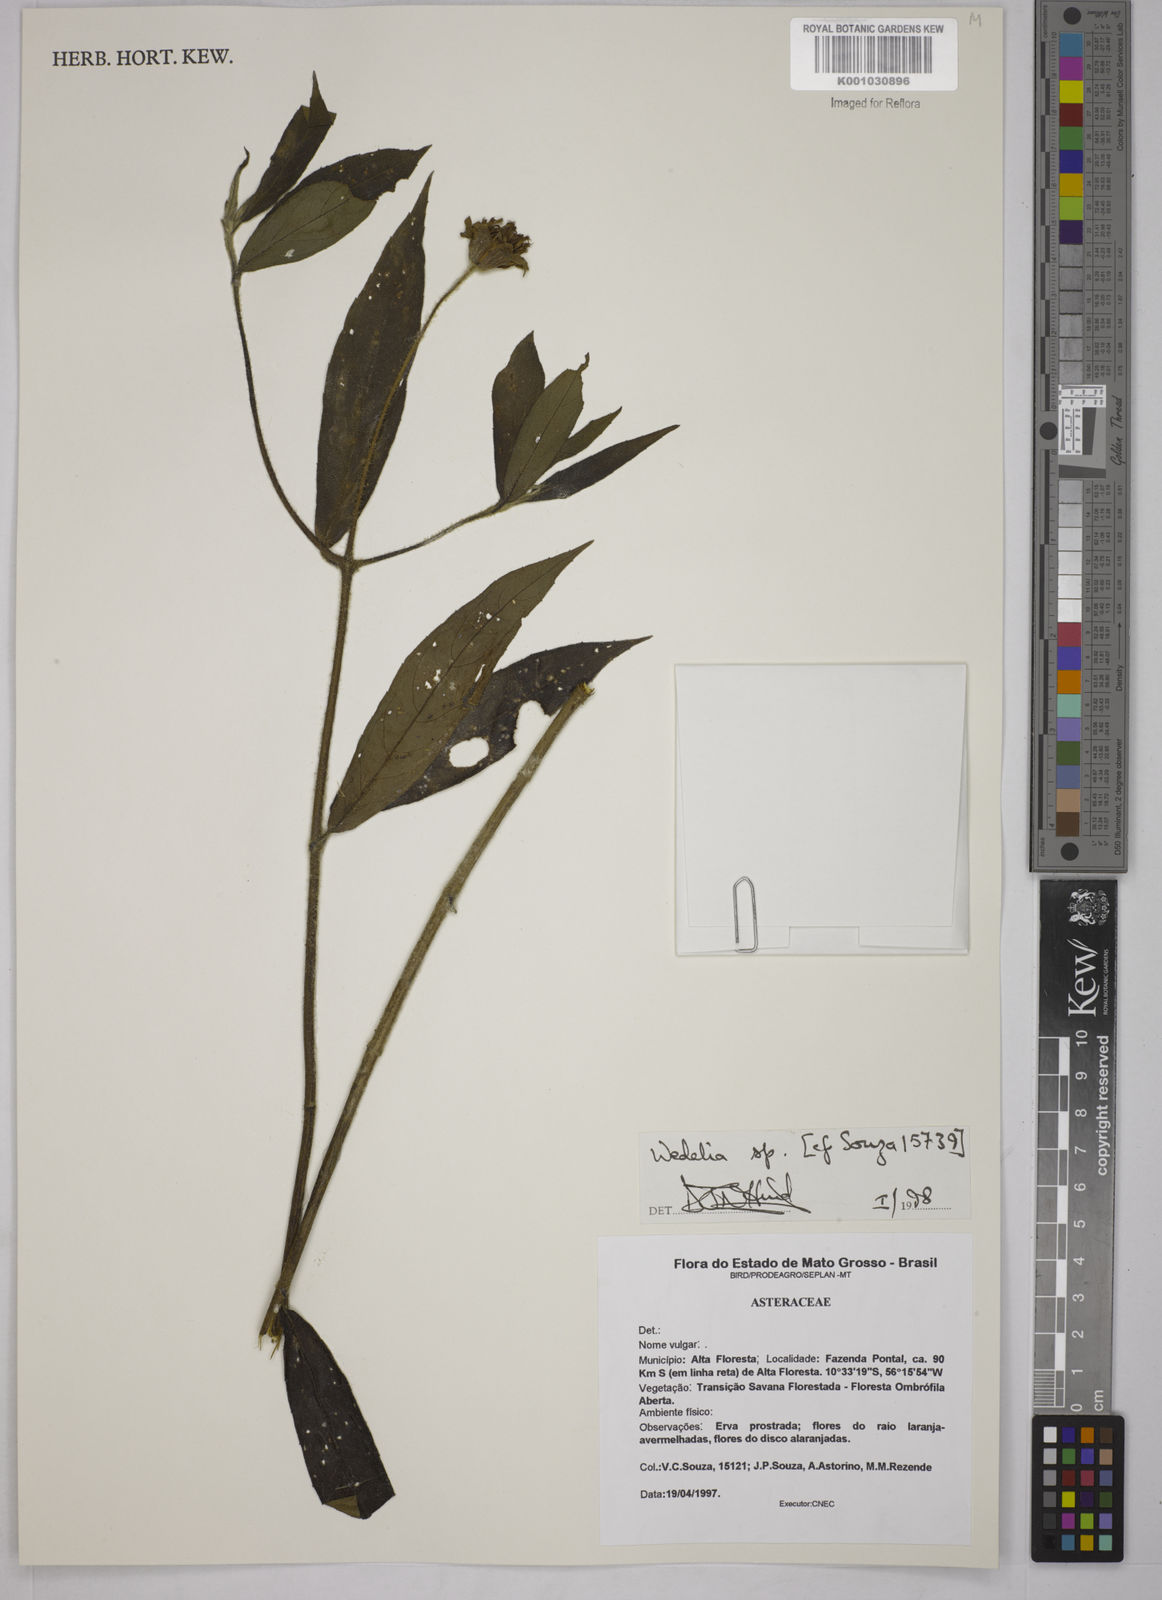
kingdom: Plantae
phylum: Tracheophyta
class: Magnoliopsida
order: Asterales
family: Asteraceae
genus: Wedelia
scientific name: Wedelia
